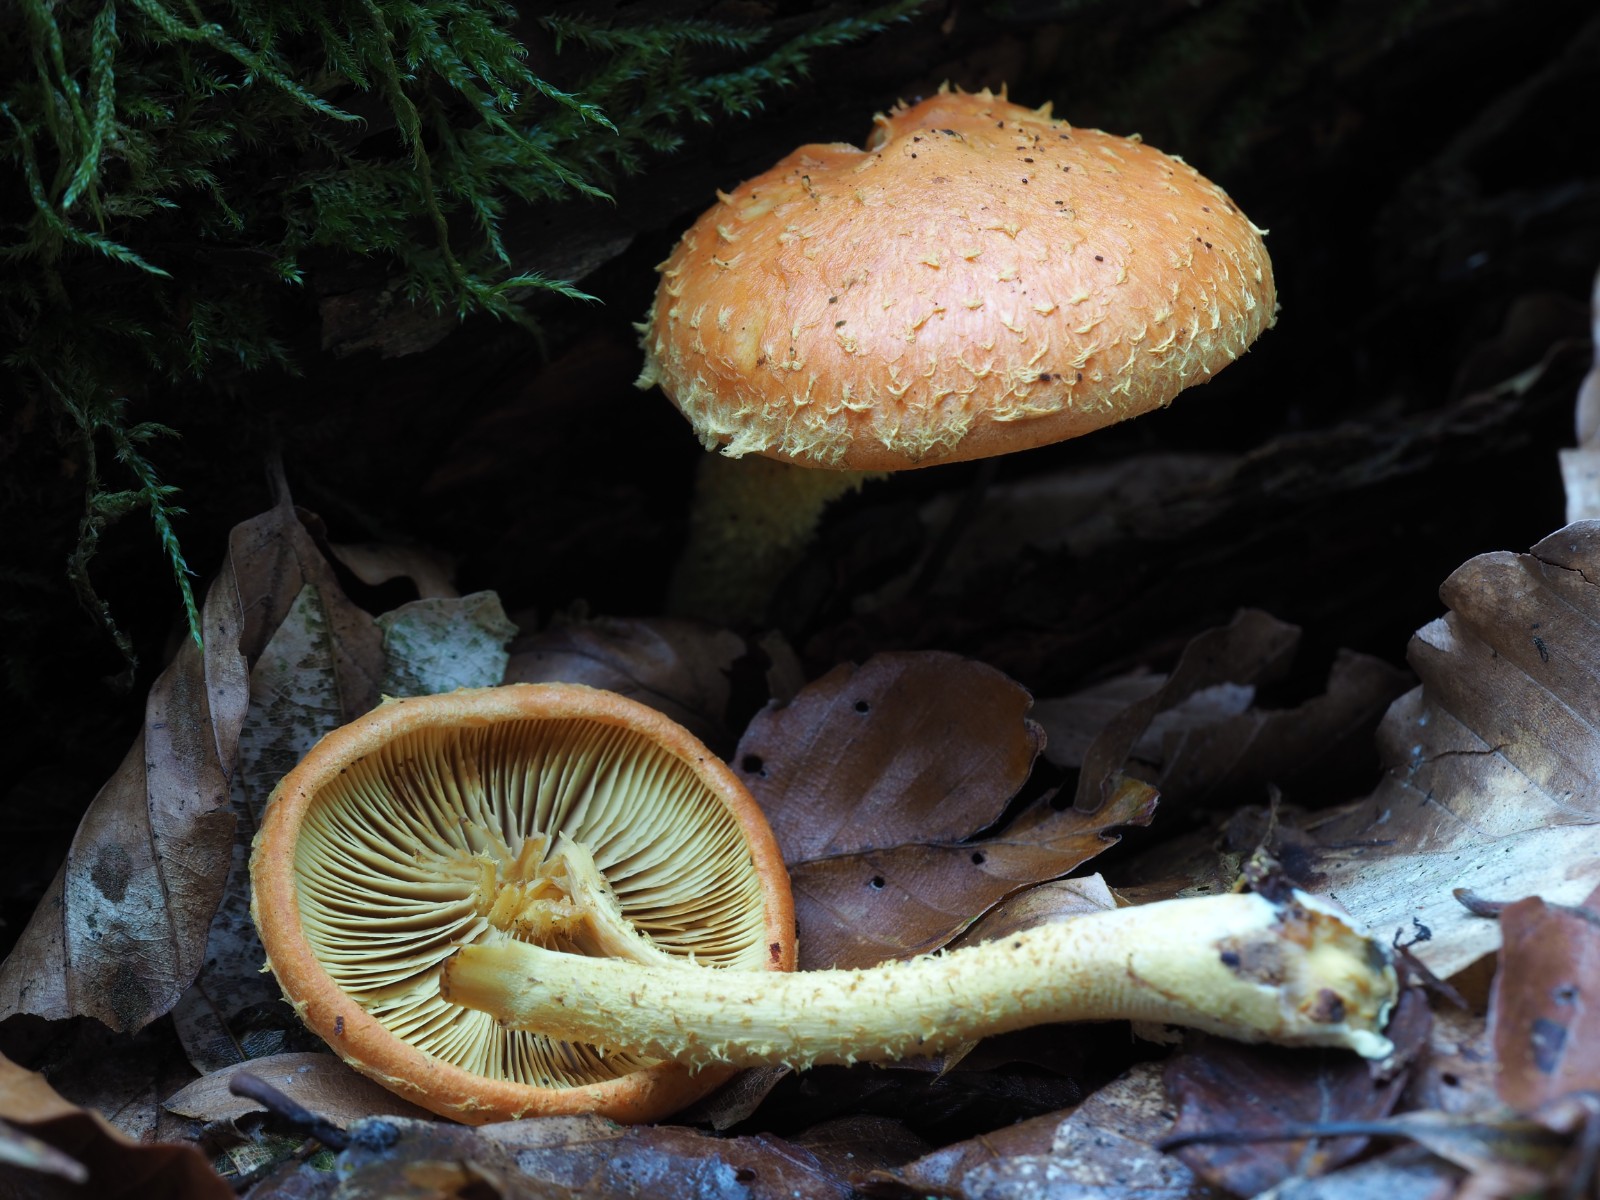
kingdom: Fungi
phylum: Basidiomycota
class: Agaricomycetes
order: Agaricales
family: Strophariaceae
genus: Pholiota
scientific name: Pholiota flammans
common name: flamme-skælhat
